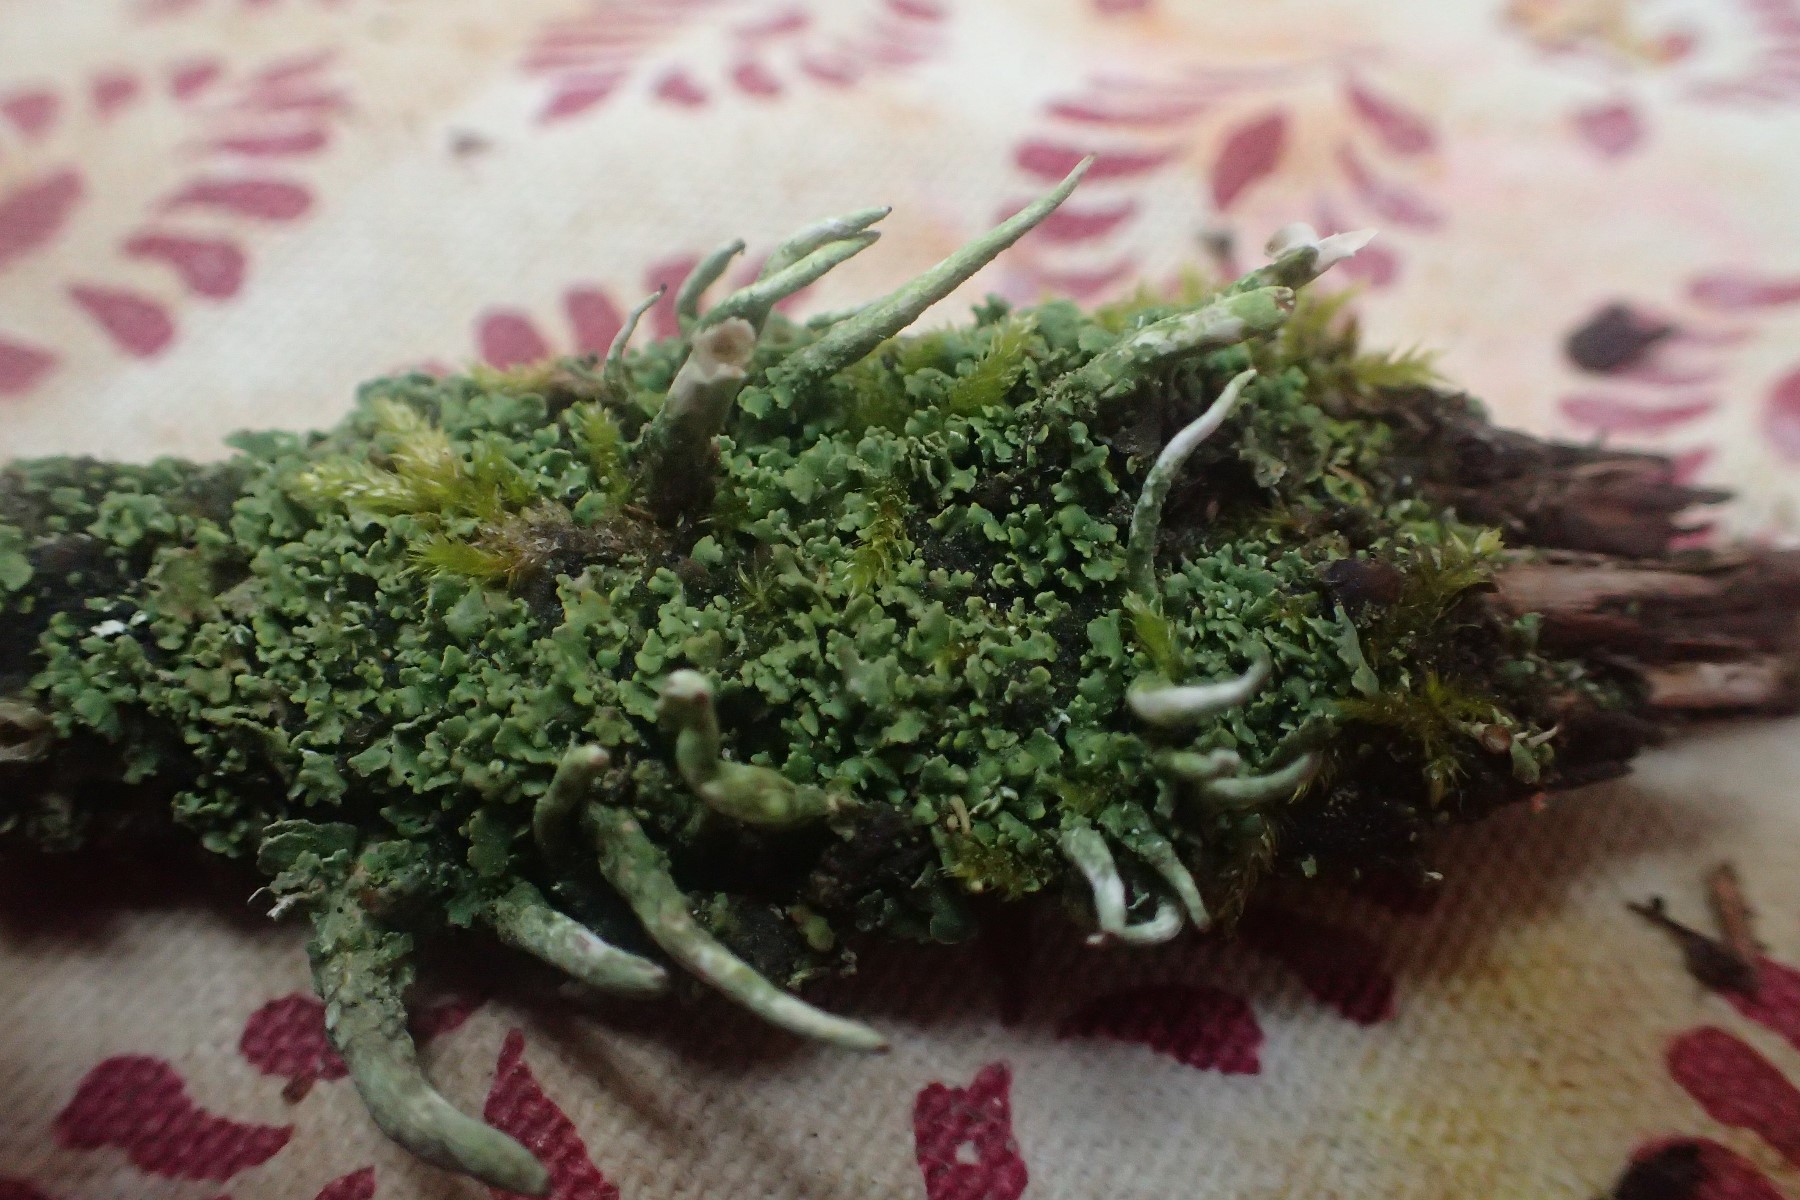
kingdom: Fungi
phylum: Ascomycota
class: Lecanoromycetes
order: Lecanorales
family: Cladoniaceae
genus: Cladonia
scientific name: Cladonia coniocraea
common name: træfods-bægerlav
